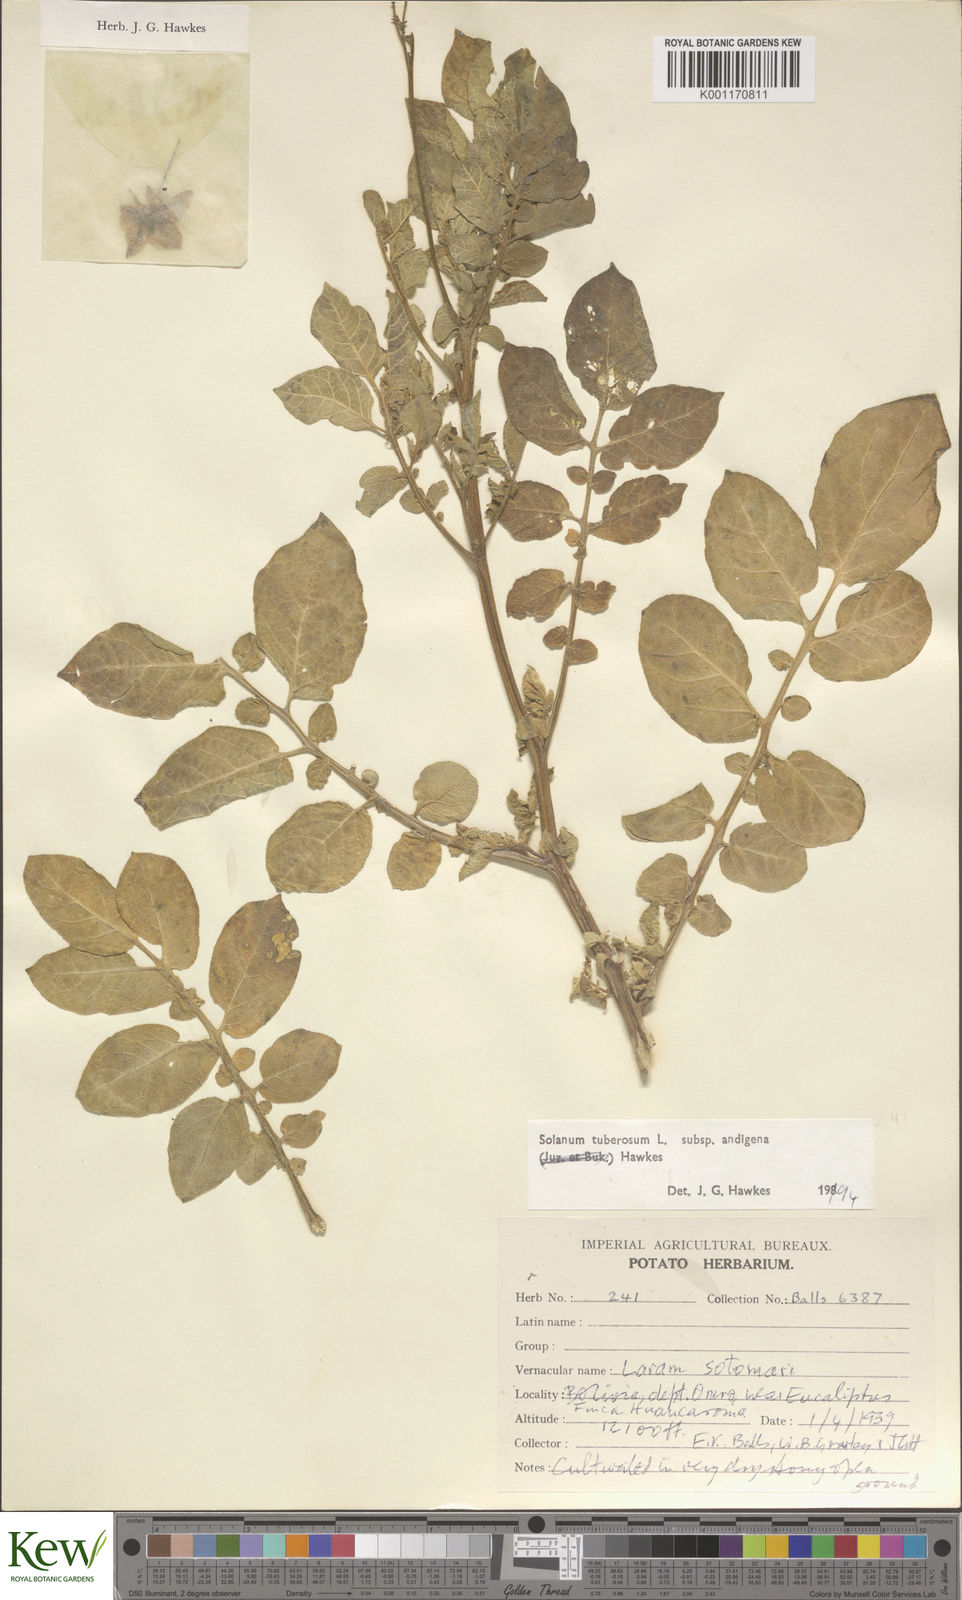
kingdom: Plantae
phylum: Tracheophyta
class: Magnoliopsida
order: Solanales
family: Solanaceae
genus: Solanum
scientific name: Solanum tuberosum
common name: Potato
